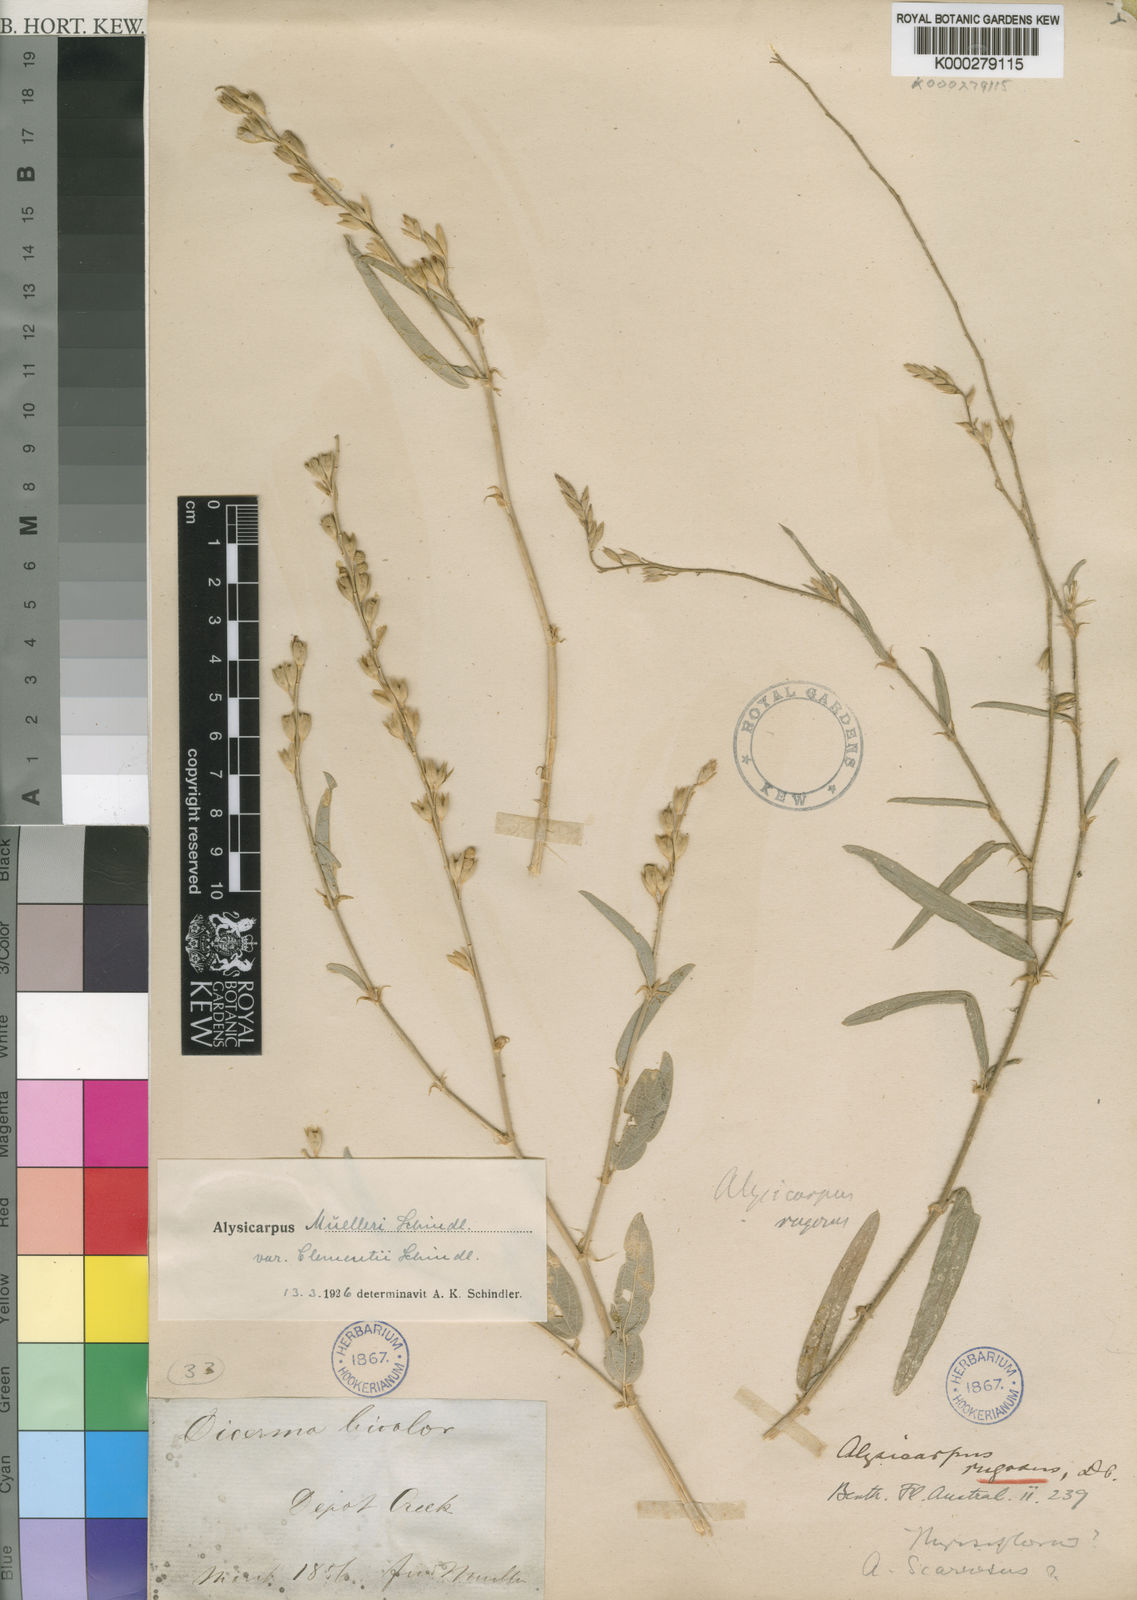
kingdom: Plantae
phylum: Tracheophyta
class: Magnoliopsida
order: Fabales
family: Fabaceae
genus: Alysicarpus
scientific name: Alysicarpus muelleri
